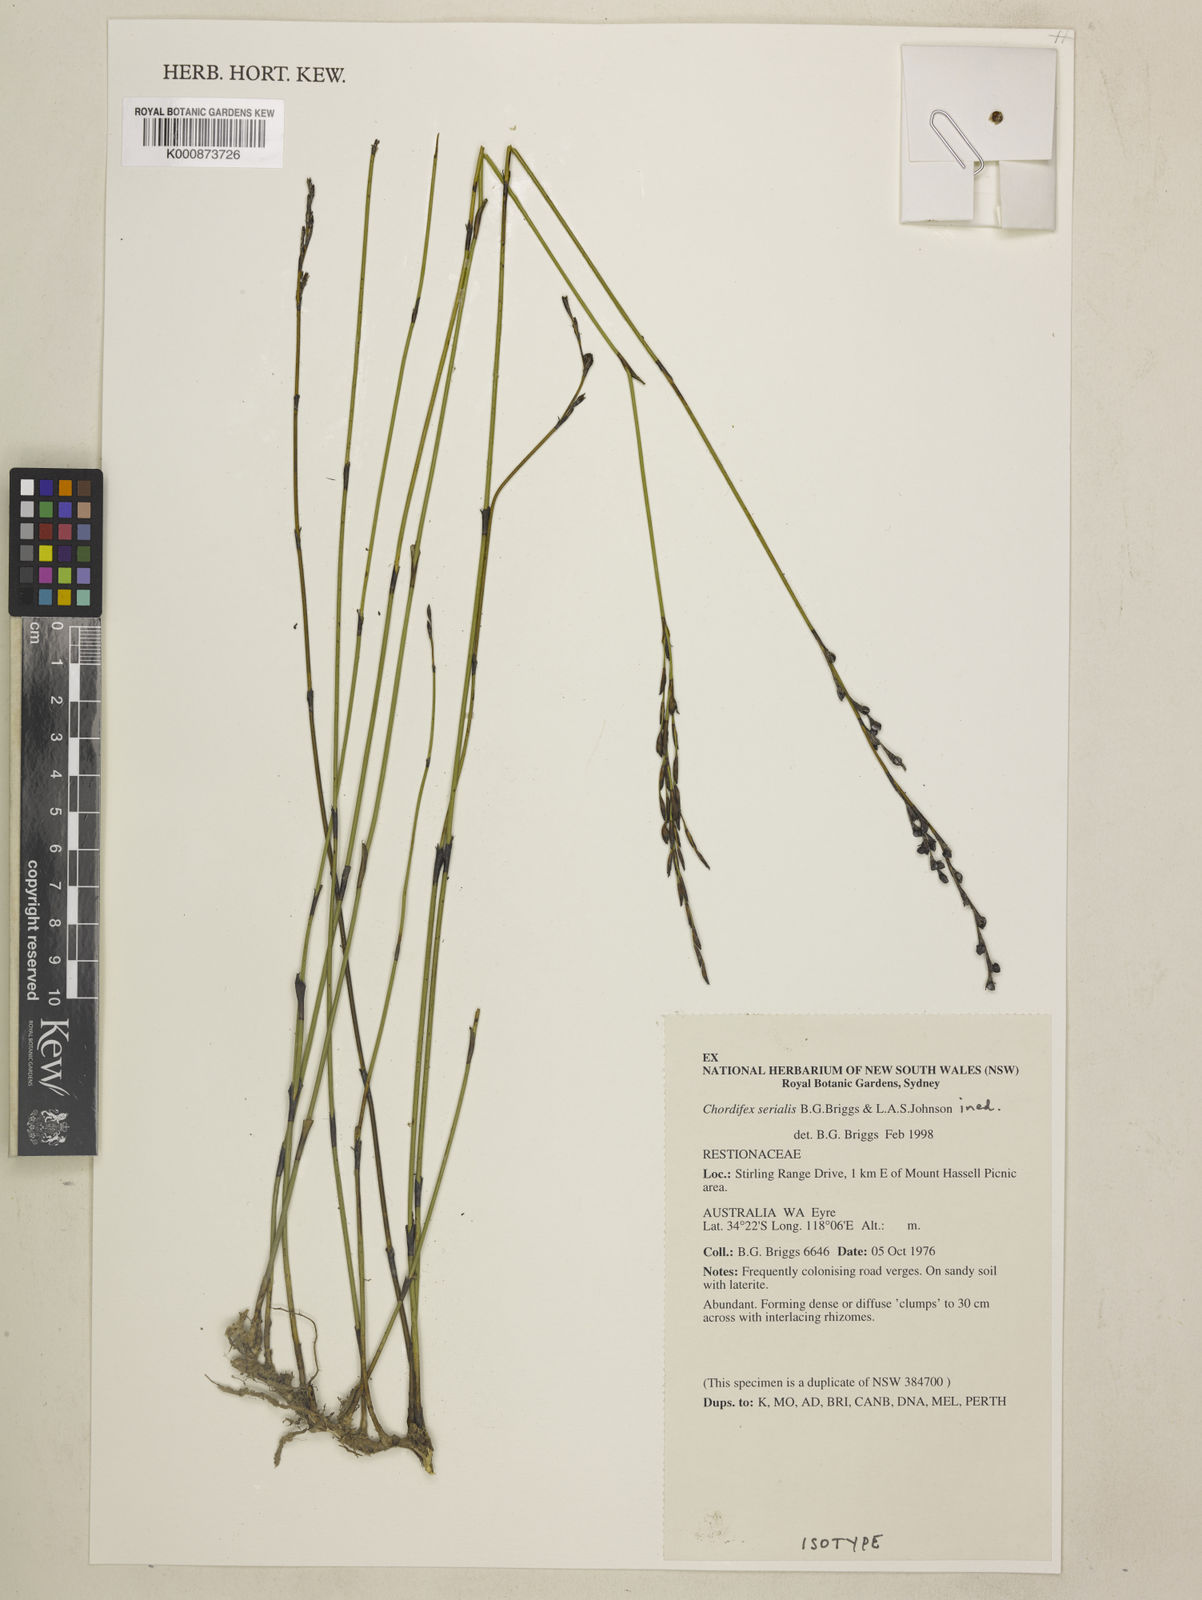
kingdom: Plantae
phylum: Tracheophyta
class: Liliopsida
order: Poales
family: Restionaceae
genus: Chordifex
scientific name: Chordifex isomorphus
